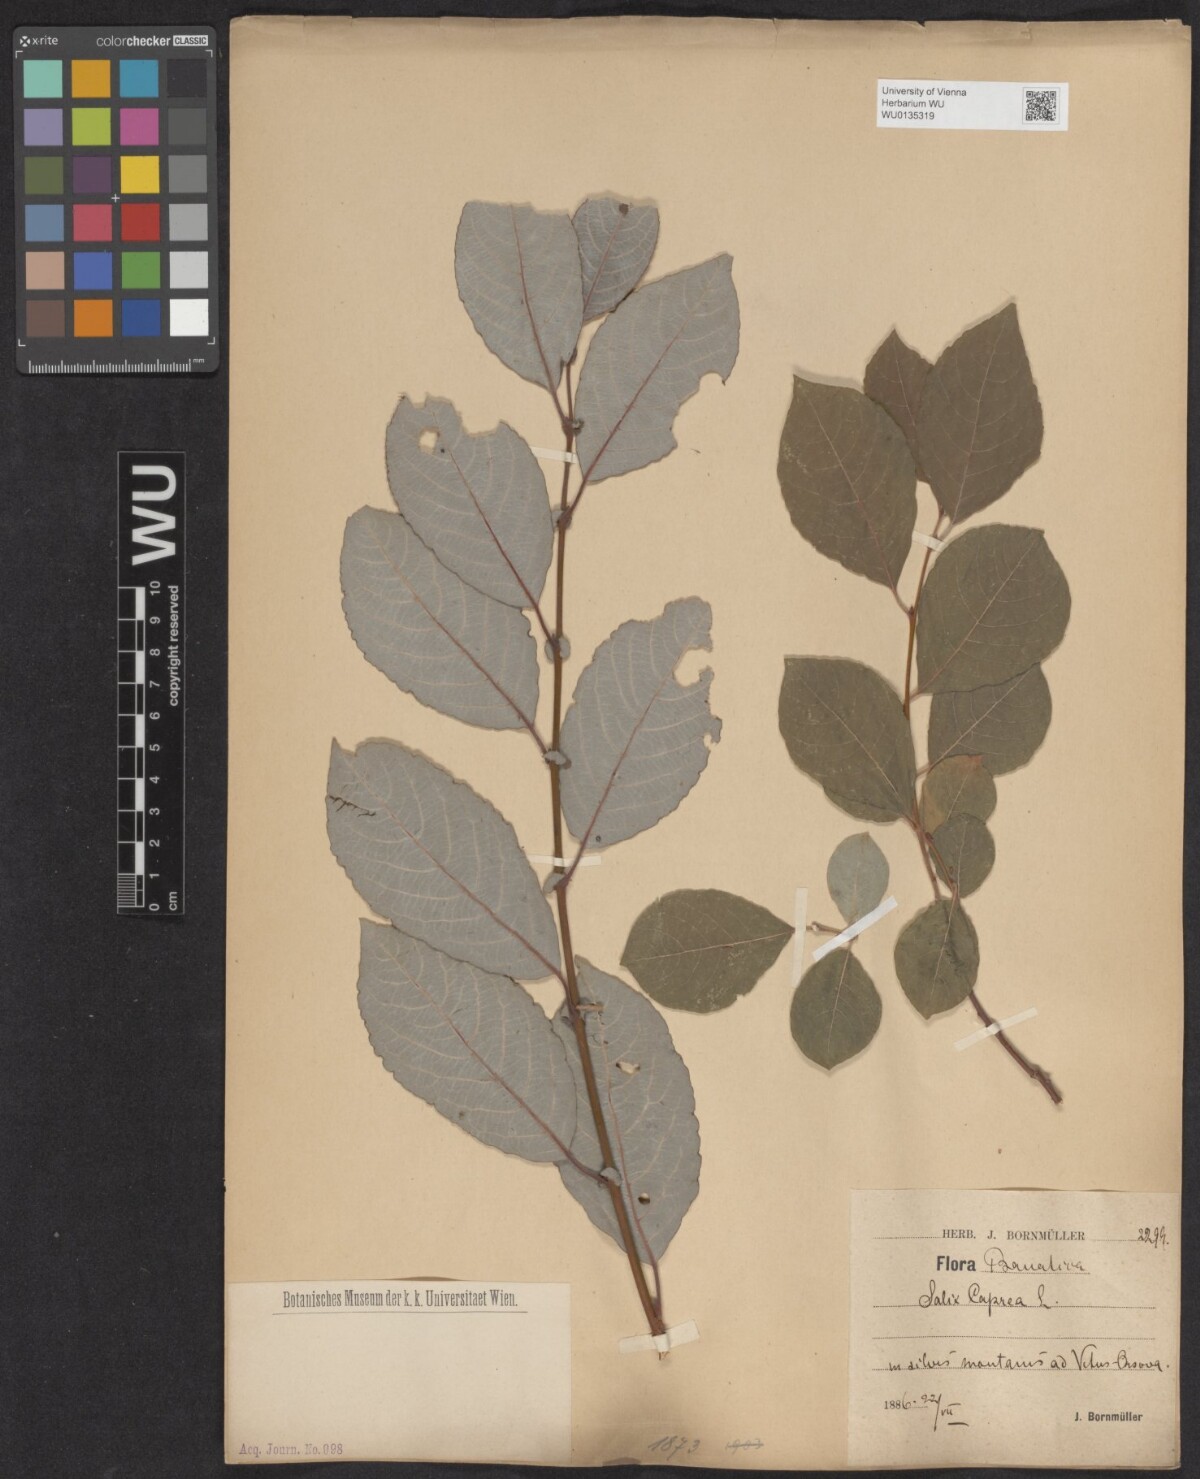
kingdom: Plantae
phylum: Tracheophyta
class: Magnoliopsida
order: Malpighiales
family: Salicaceae
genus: Salix
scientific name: Salix caprea
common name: Goat willow
